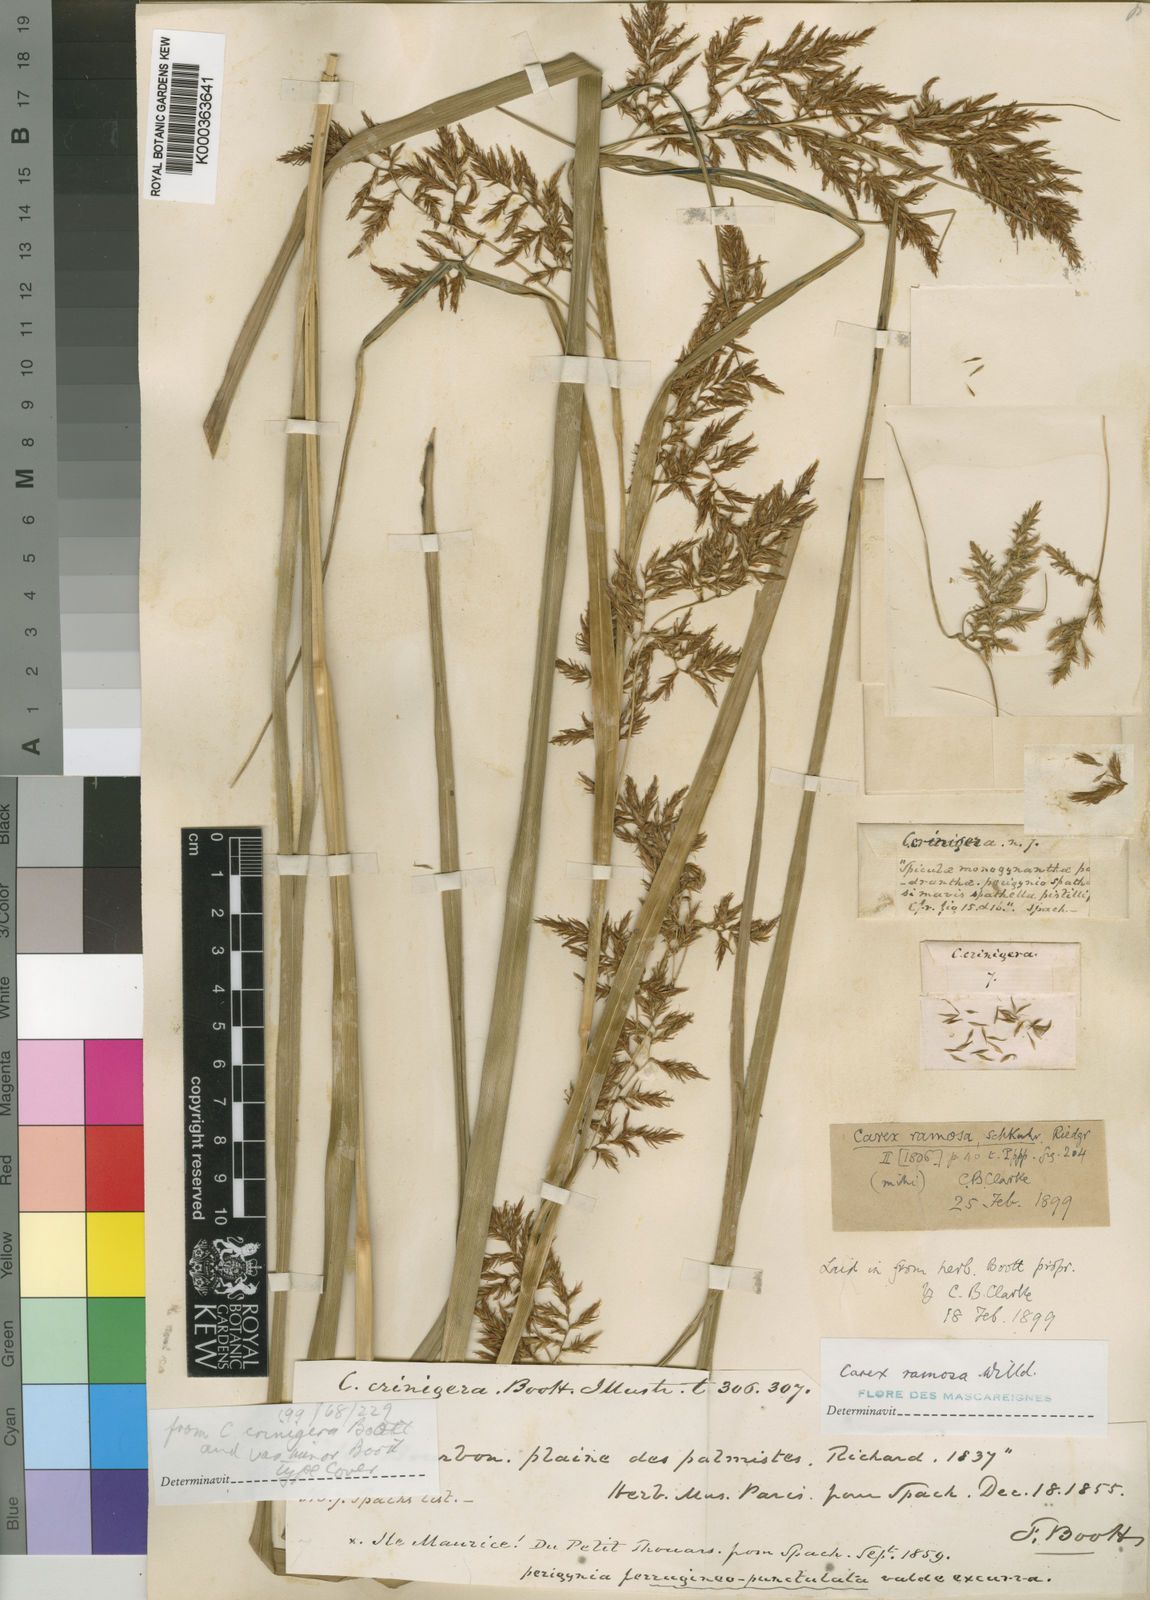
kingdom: Plantae
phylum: Tracheophyta
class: Liliopsida
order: Poales
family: Cyperaceae
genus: Carex
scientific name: Carex ramosa
